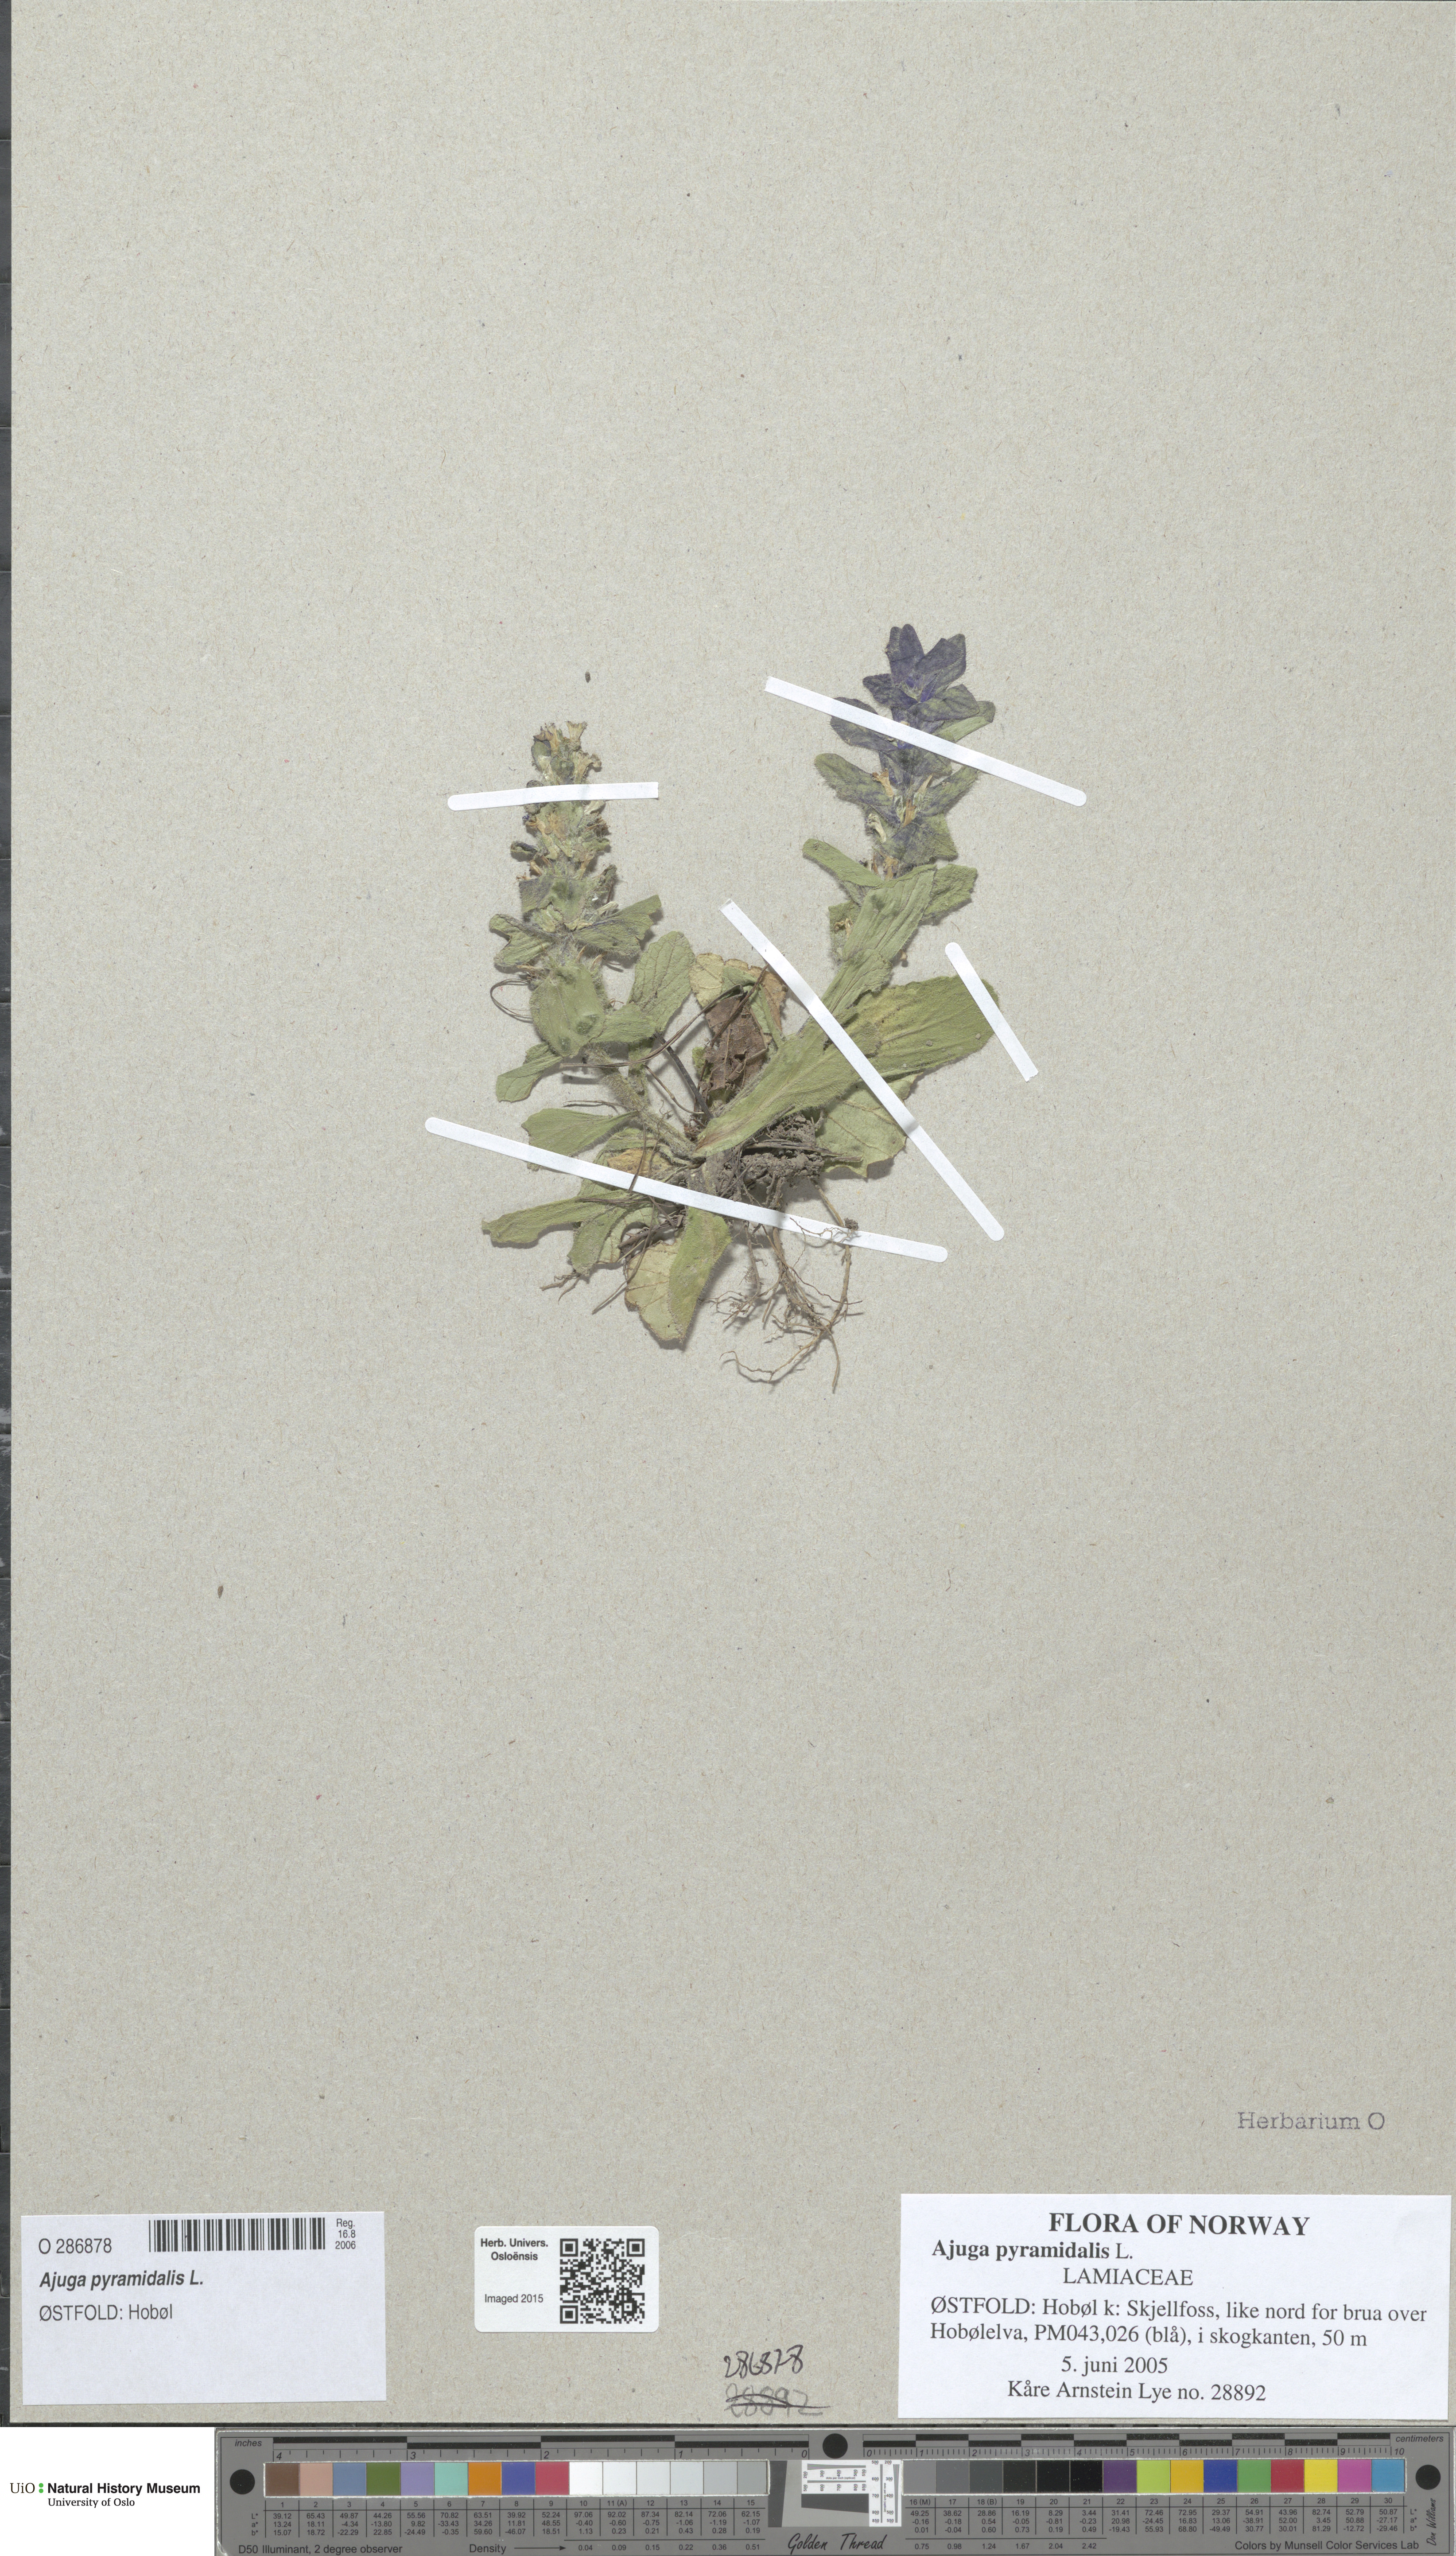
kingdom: Plantae
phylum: Tracheophyta
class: Magnoliopsida
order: Lamiales
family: Lamiaceae
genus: Ajuga
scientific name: Ajuga pyramidalis
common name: Pyramid bugle
